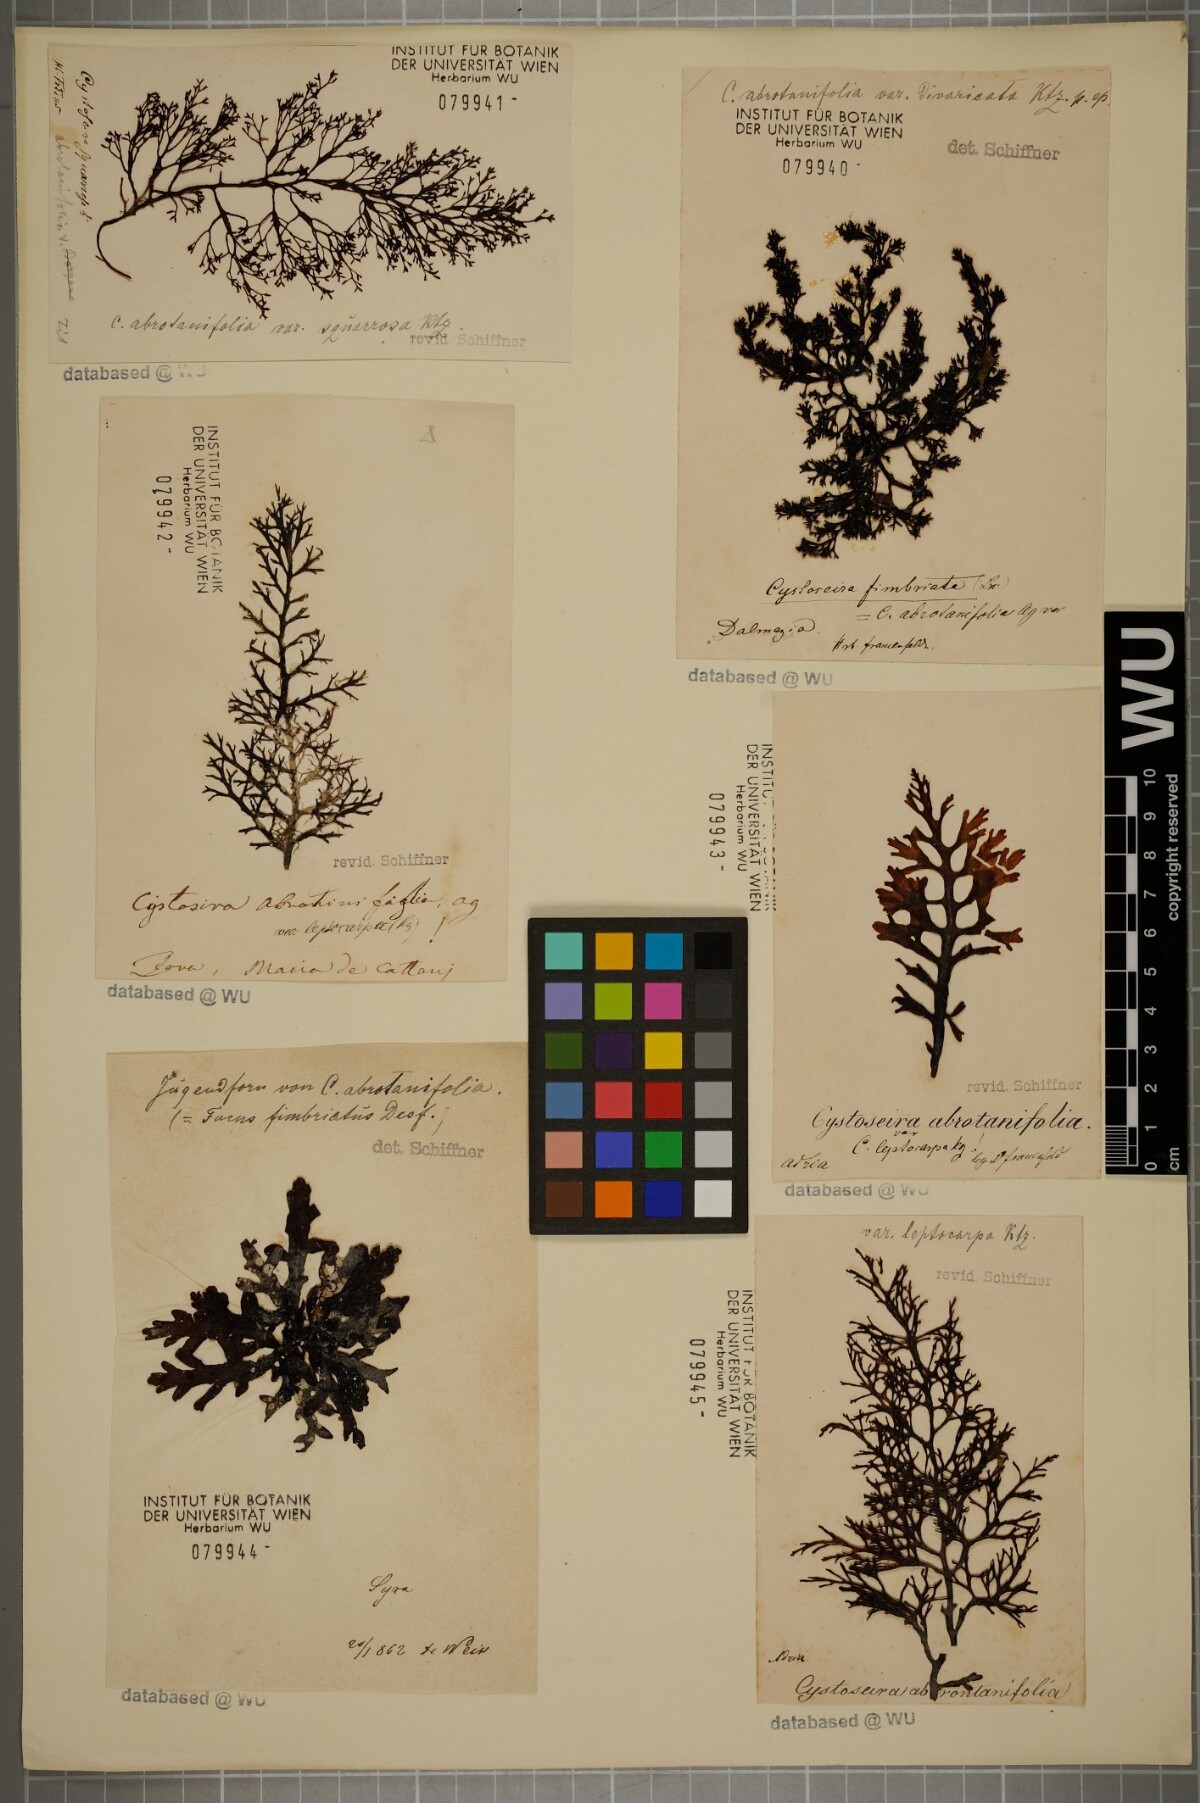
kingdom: Chromista
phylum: Ochrophyta
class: Phaeophyceae
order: Fucales
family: Sargassaceae
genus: Cystoseira
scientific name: Cystoseira foeniculacea
